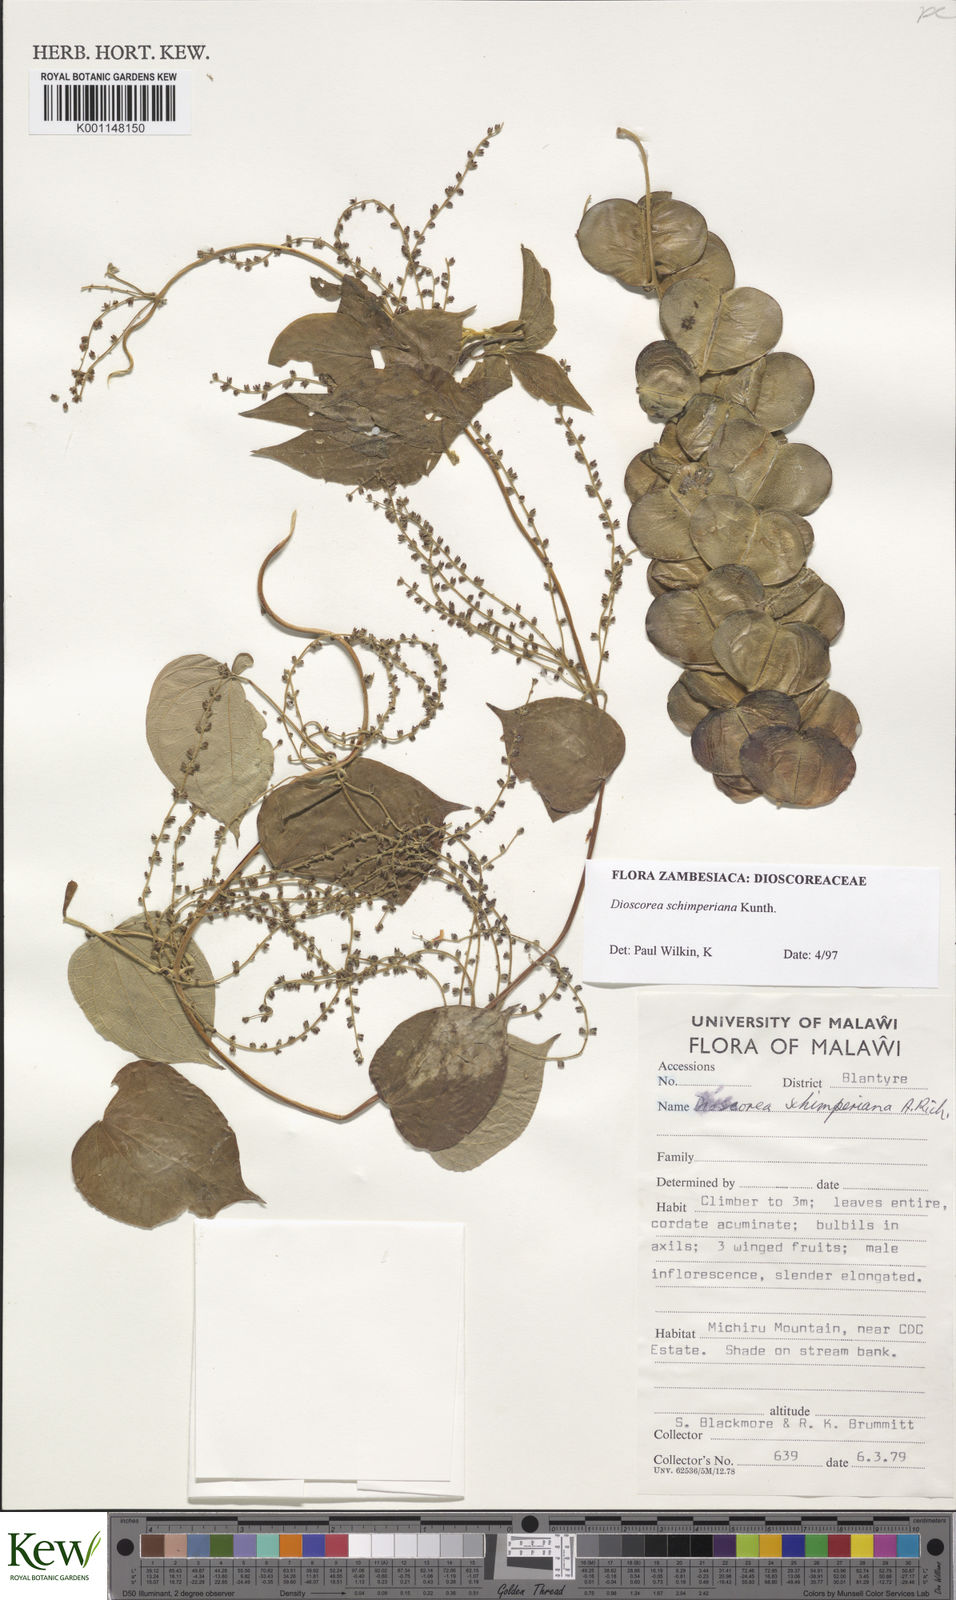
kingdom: Plantae
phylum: Tracheophyta
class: Liliopsida
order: Dioscoreales
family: Dioscoreaceae
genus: Dioscorea
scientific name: Dioscorea schimperiana
